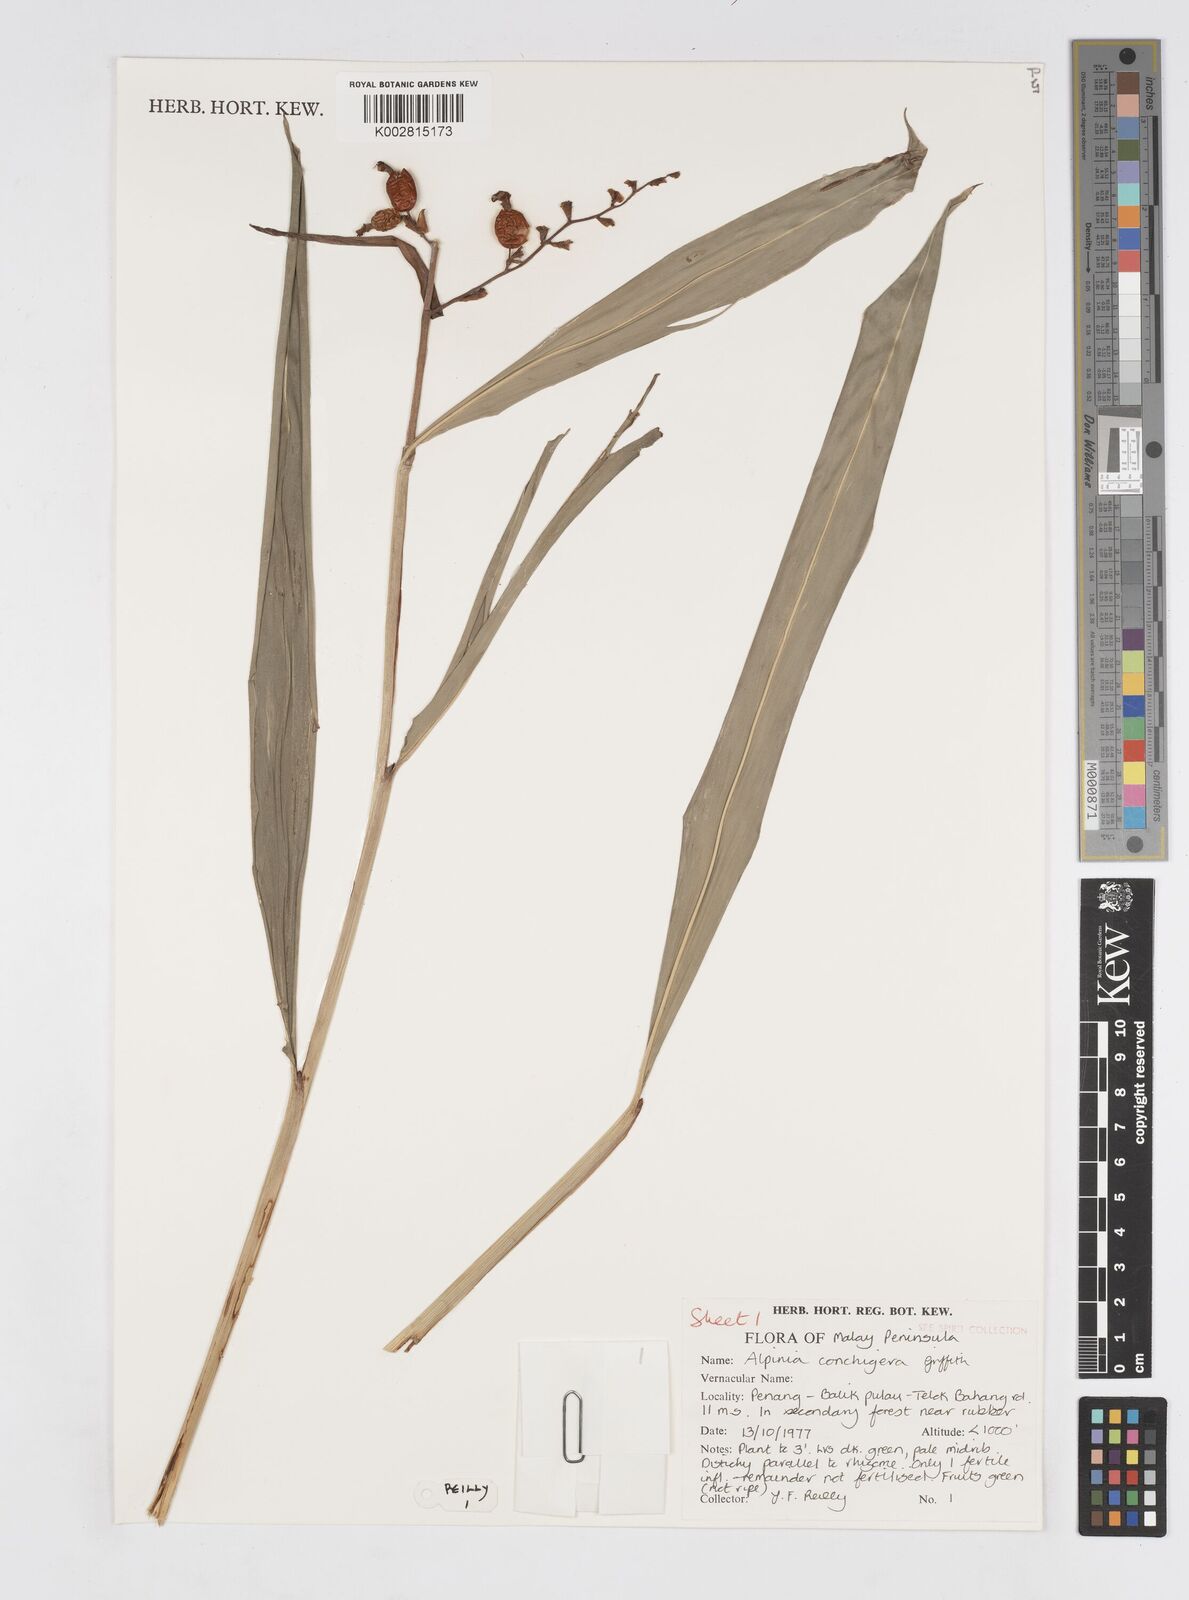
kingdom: Plantae
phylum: Tracheophyta
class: Liliopsida
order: Zingiberales
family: Zingiberaceae
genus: Alpinia
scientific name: Alpinia conchigera
